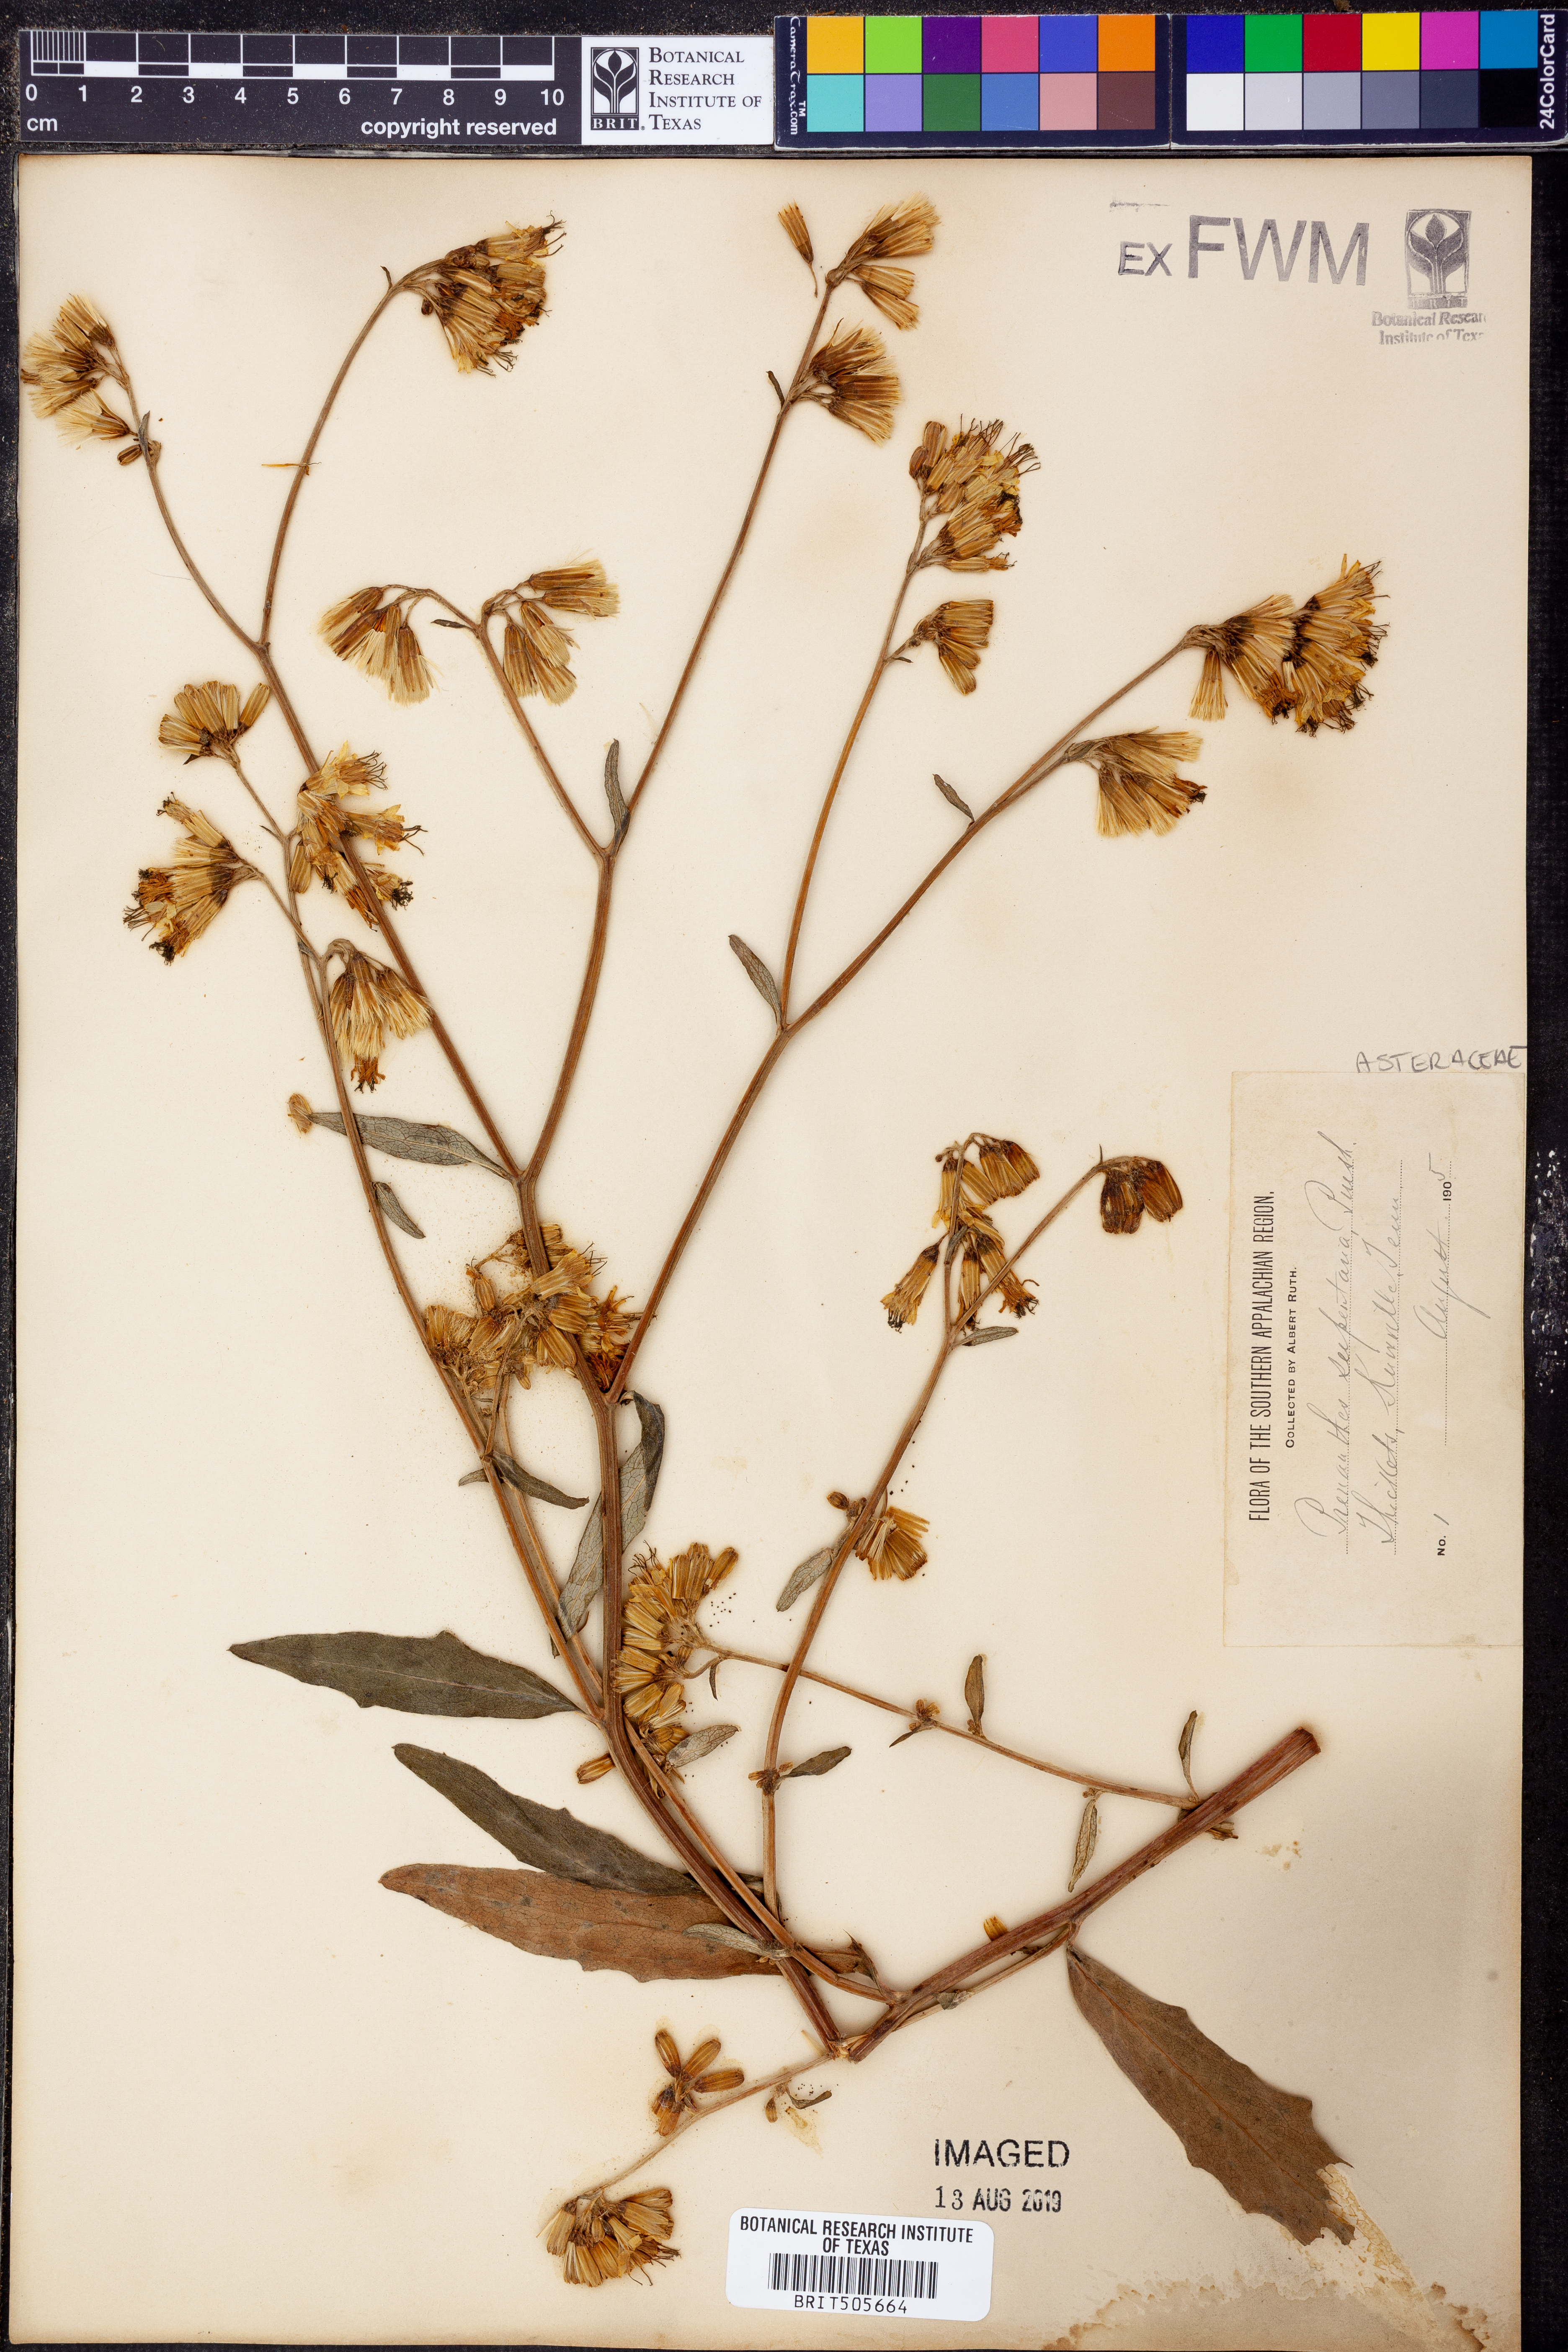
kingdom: Plantae
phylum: Tracheophyta
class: Magnoliopsida
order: Asterales
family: Asteraceae
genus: Nabalus
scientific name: Nabalus serpentarius
